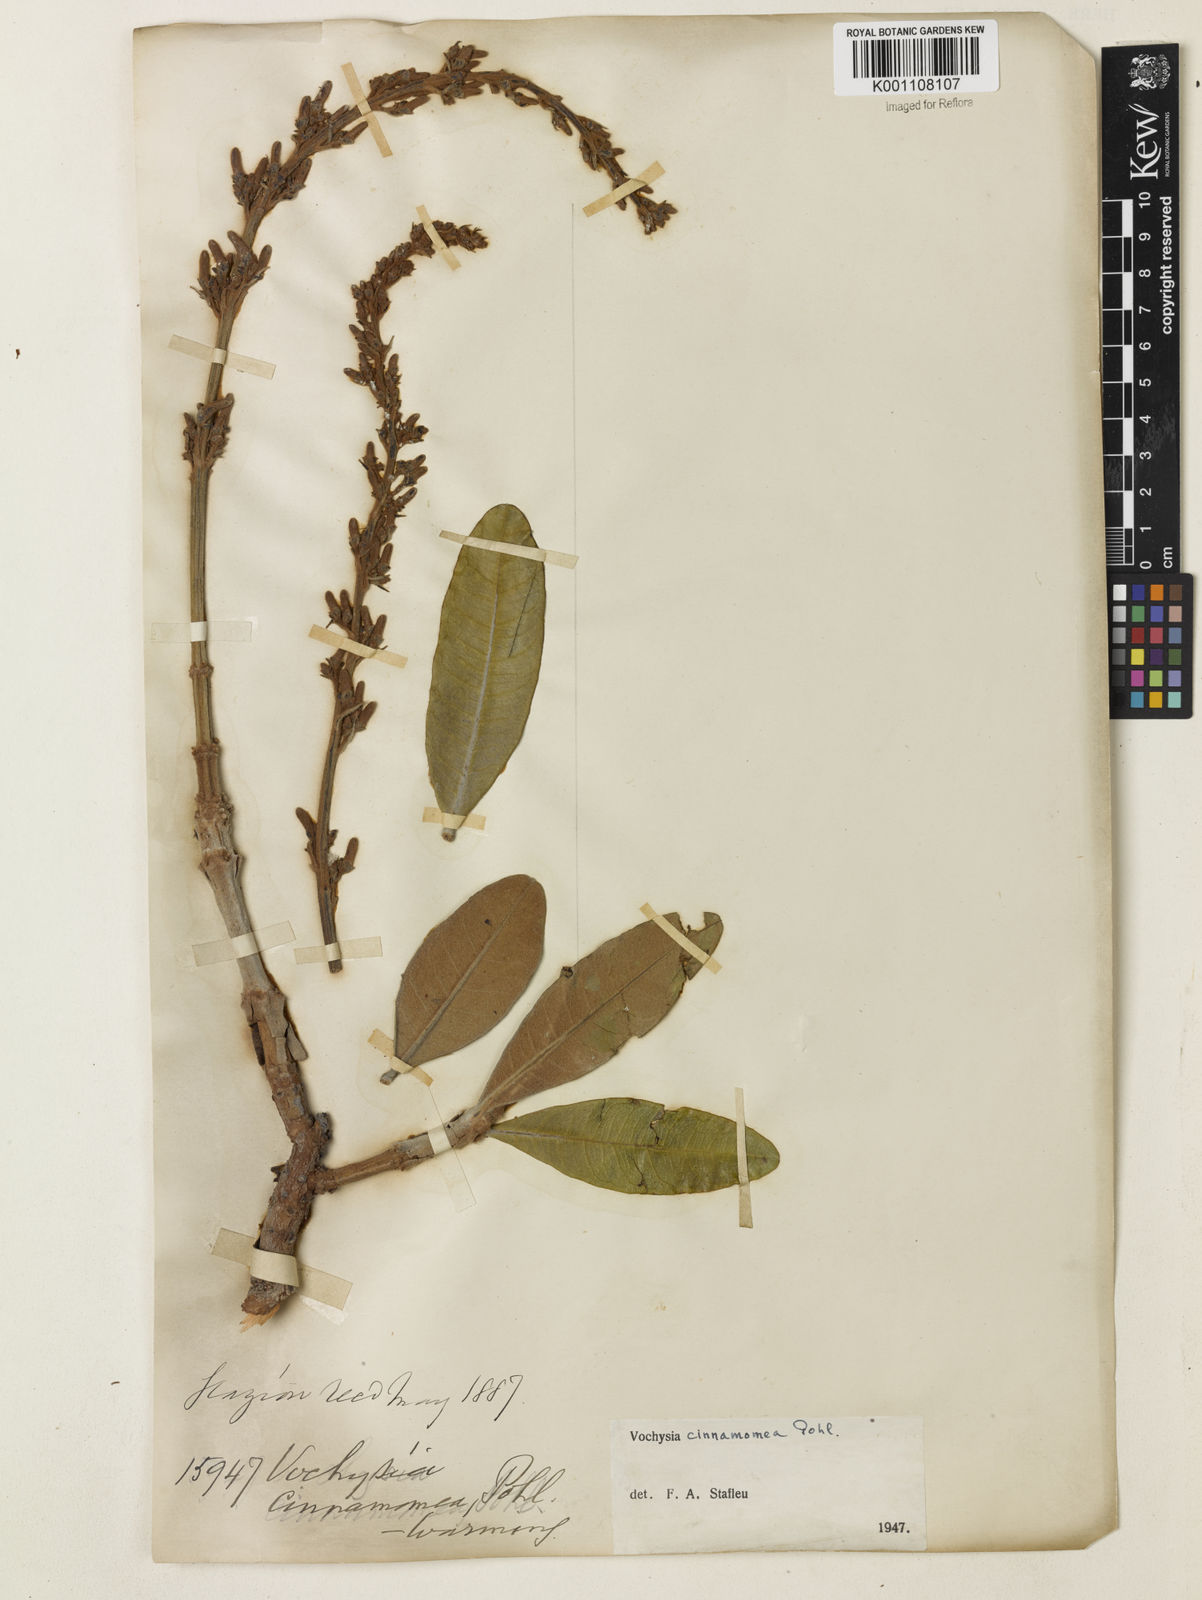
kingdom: Plantae
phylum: Tracheophyta
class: Magnoliopsida
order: Myrtales
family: Vochysiaceae
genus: Vochysia
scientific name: Vochysia cinnamomea
